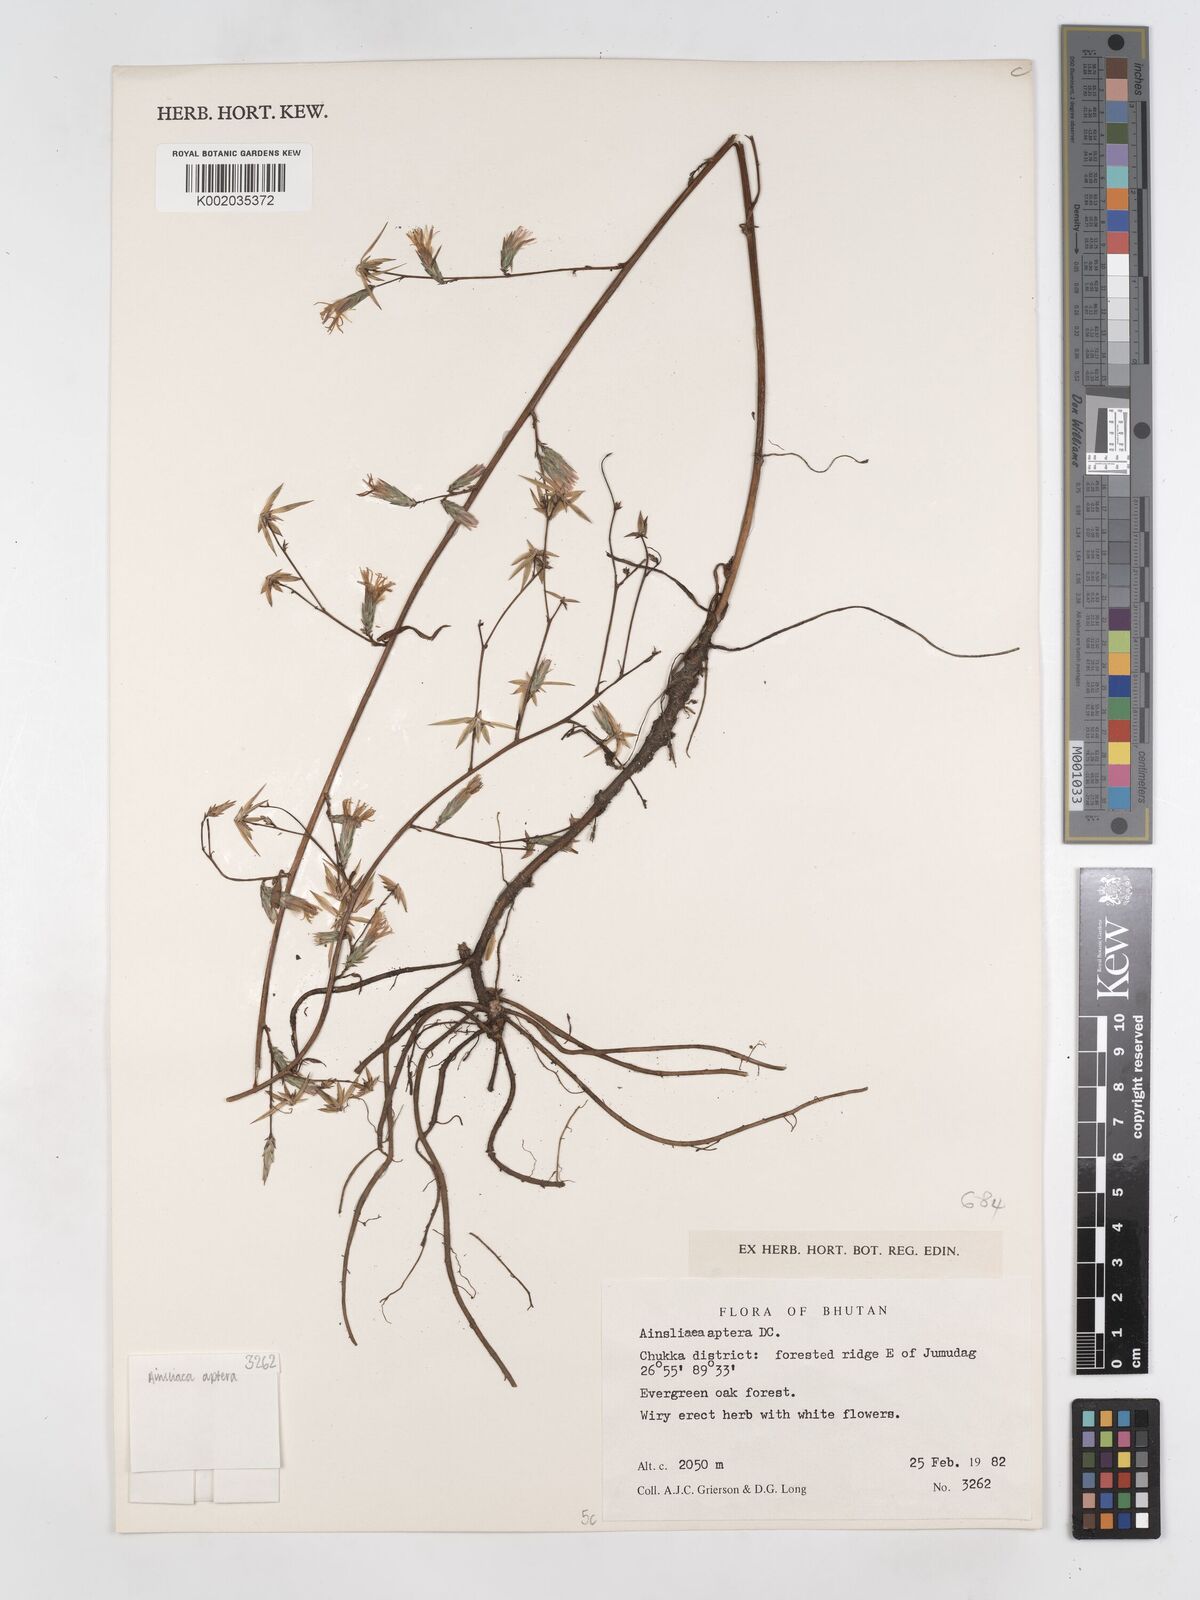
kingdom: Plantae
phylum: Tracheophyta
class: Magnoliopsida
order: Asterales
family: Asteraceae
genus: Ainsliaea
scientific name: Ainsliaea aptera
